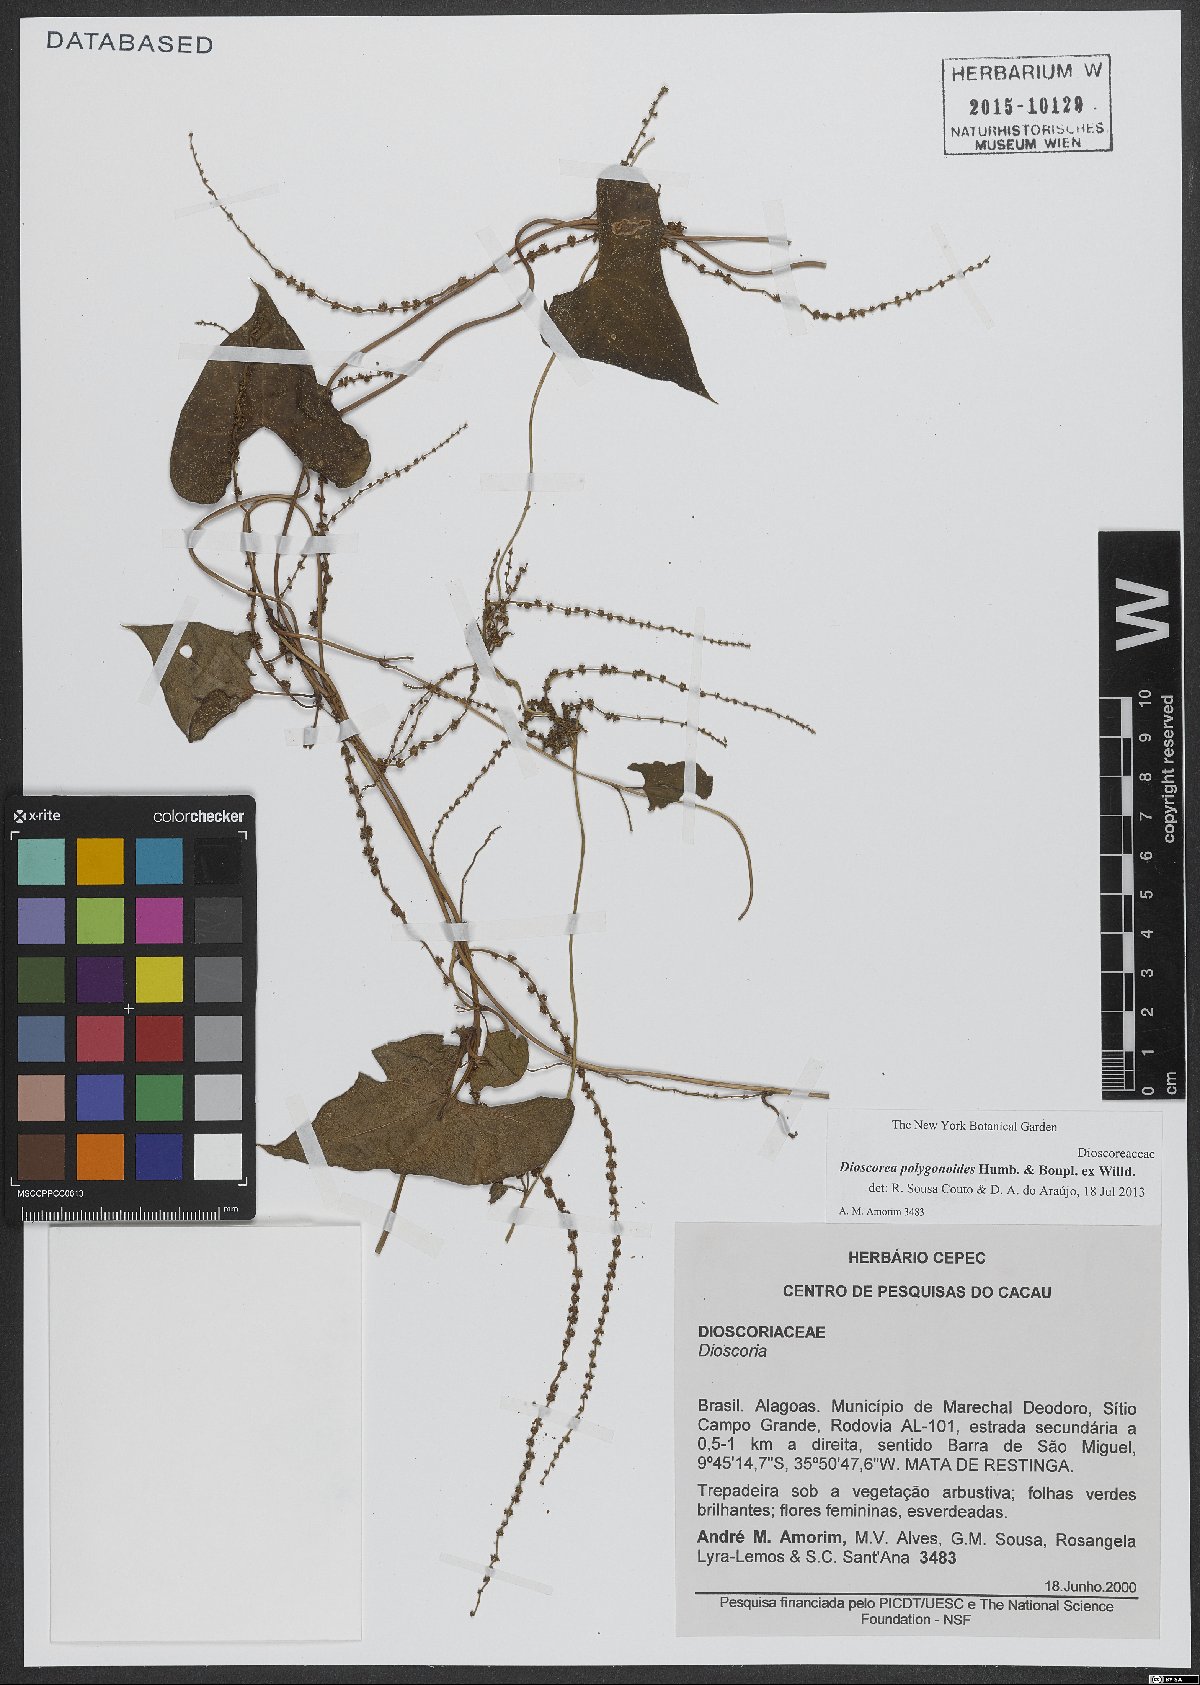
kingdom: Plantae
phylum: Tracheophyta
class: Liliopsida
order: Dioscoreales
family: Dioscoreaceae
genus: Dioscorea
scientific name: Dioscorea polygonoides
